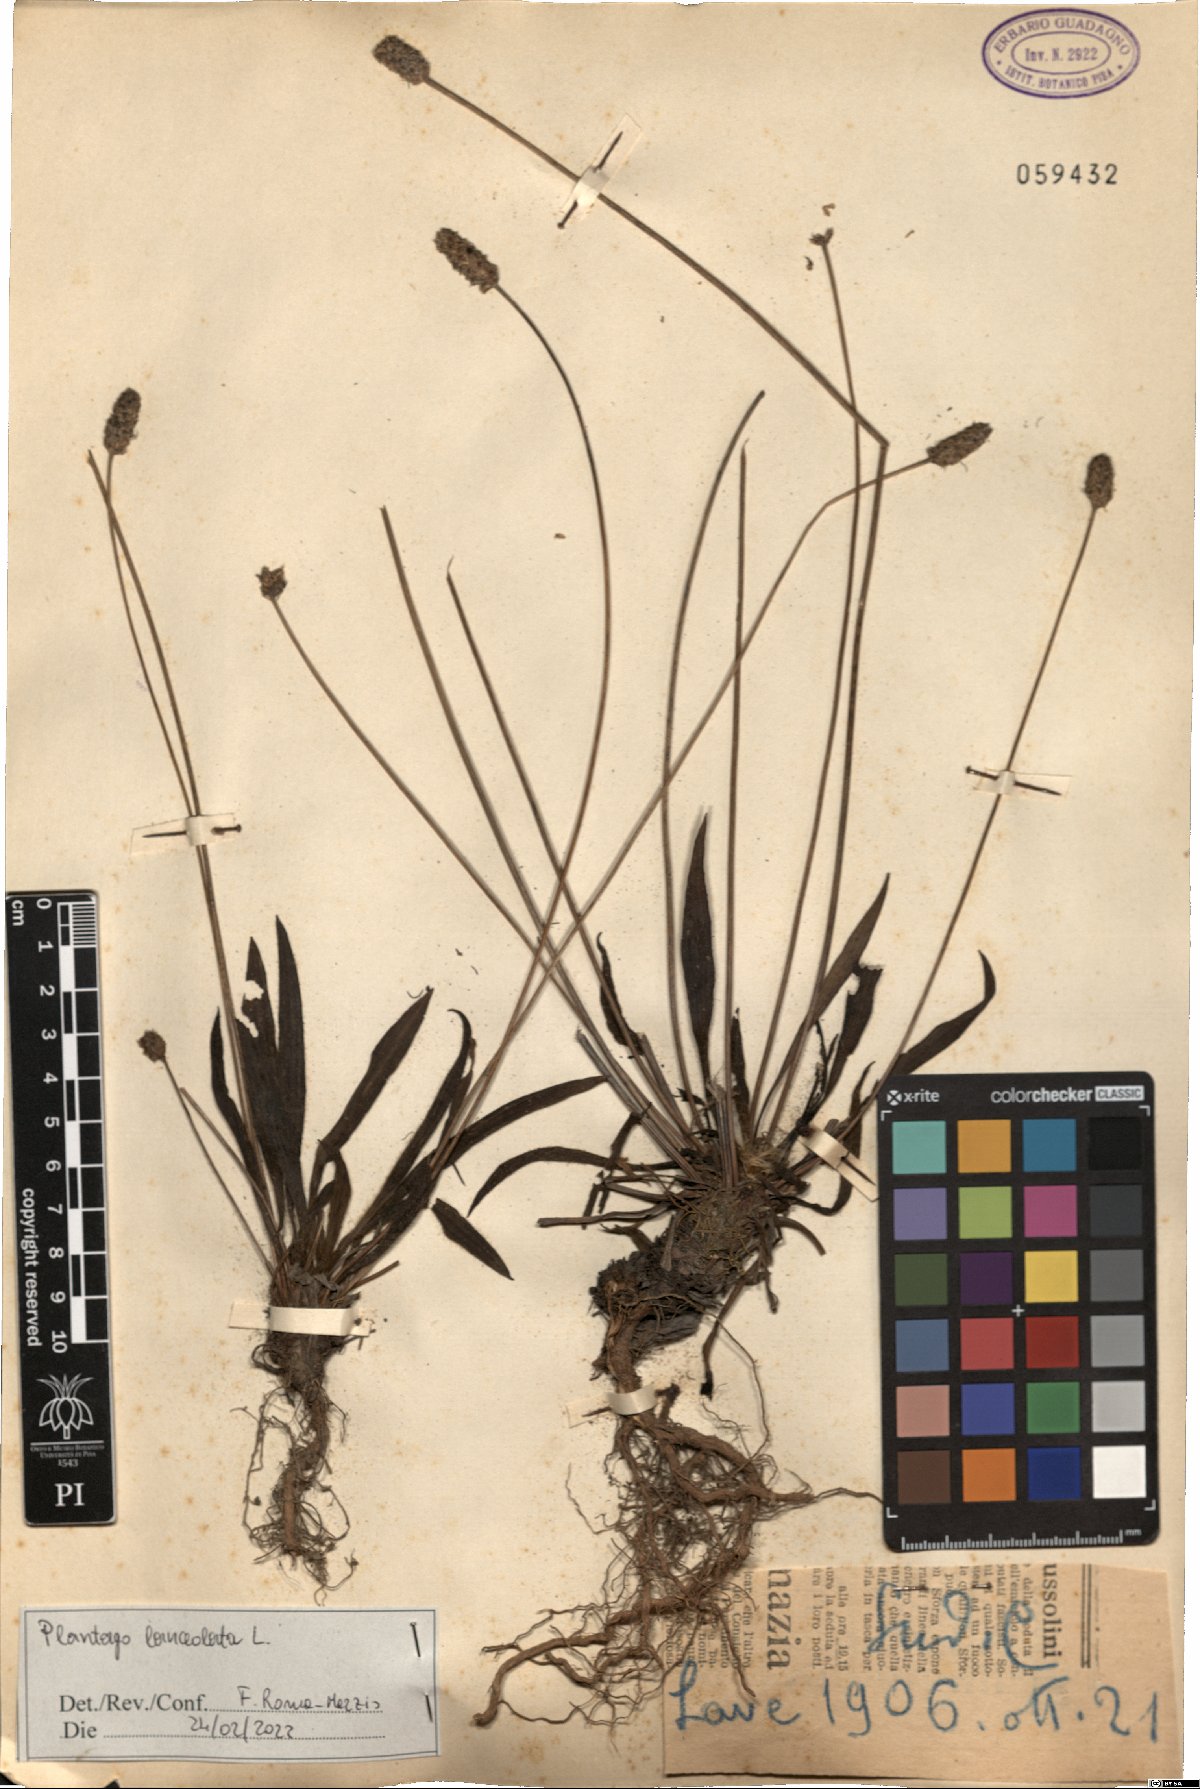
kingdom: Plantae
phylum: Tracheophyta
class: Magnoliopsida
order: Lamiales
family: Plantaginaceae
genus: Plantago
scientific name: Plantago lanceolata
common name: Ribwort plantain
